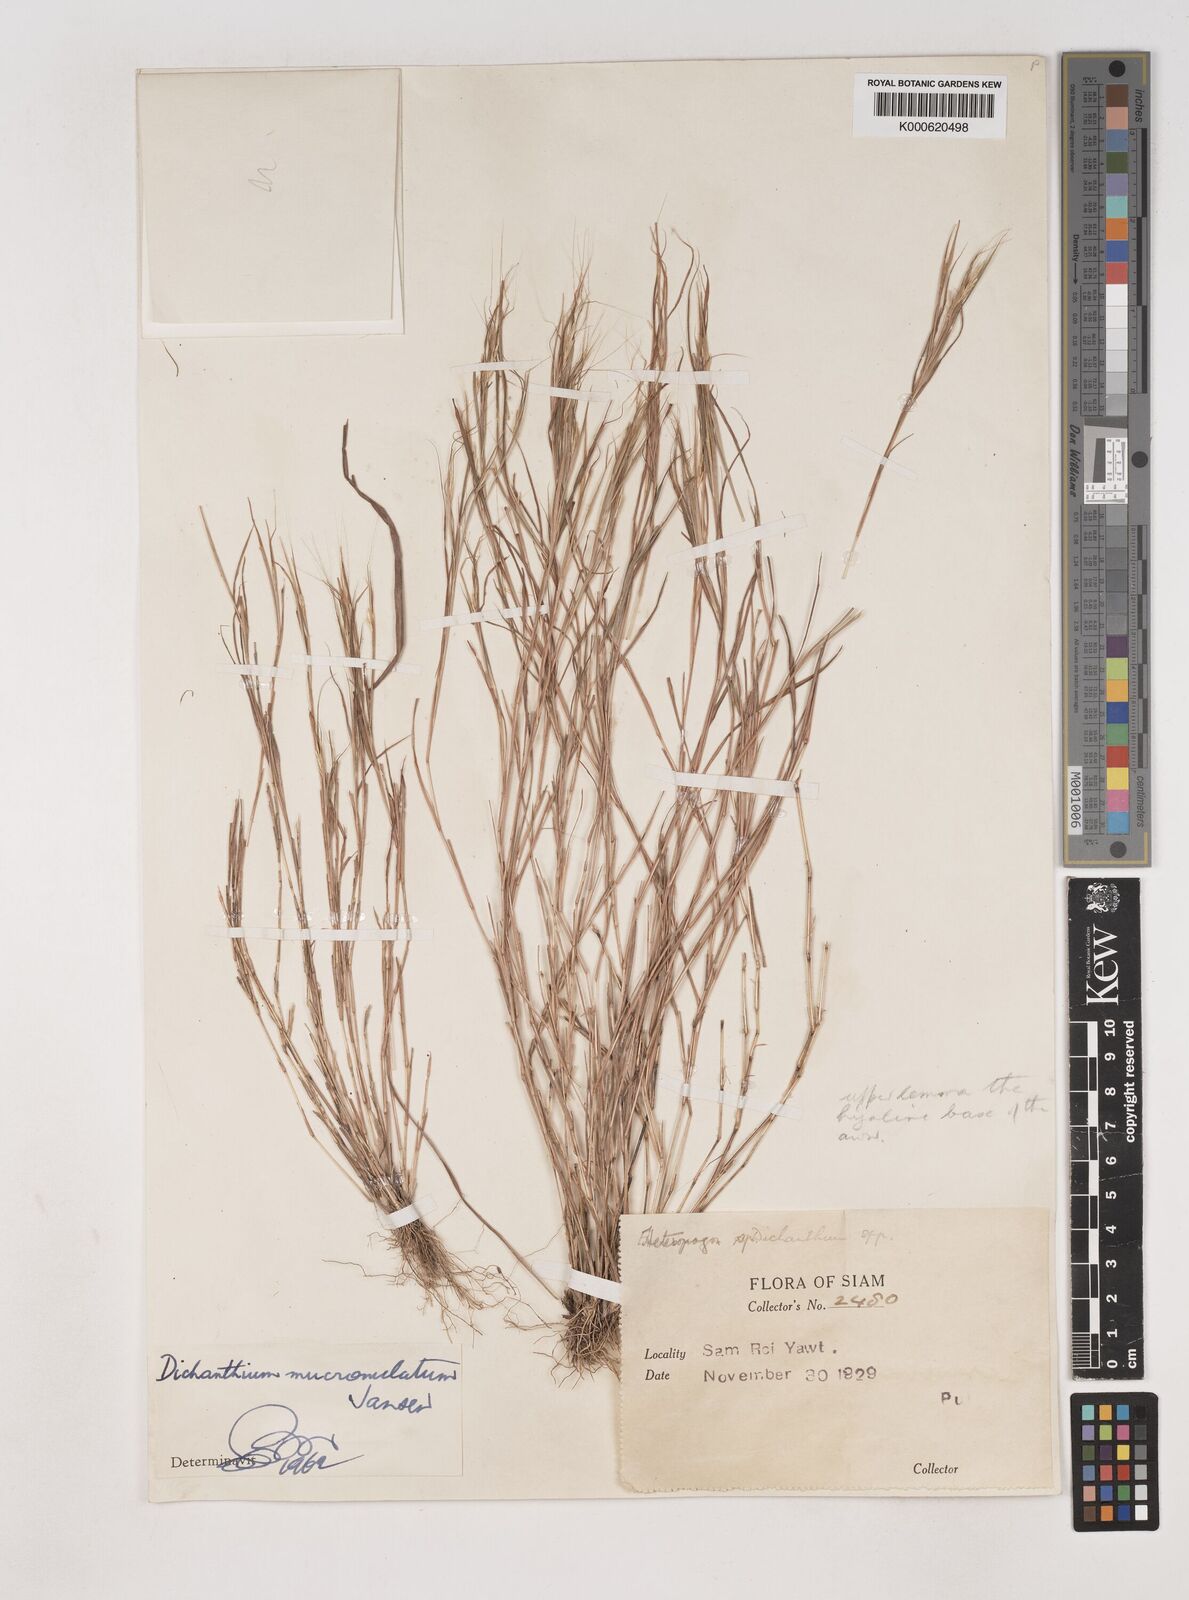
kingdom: Plantae
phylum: Tracheophyta
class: Liliopsida
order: Poales
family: Poaceae
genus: Dichanthium
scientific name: Dichanthium mucronulatum
